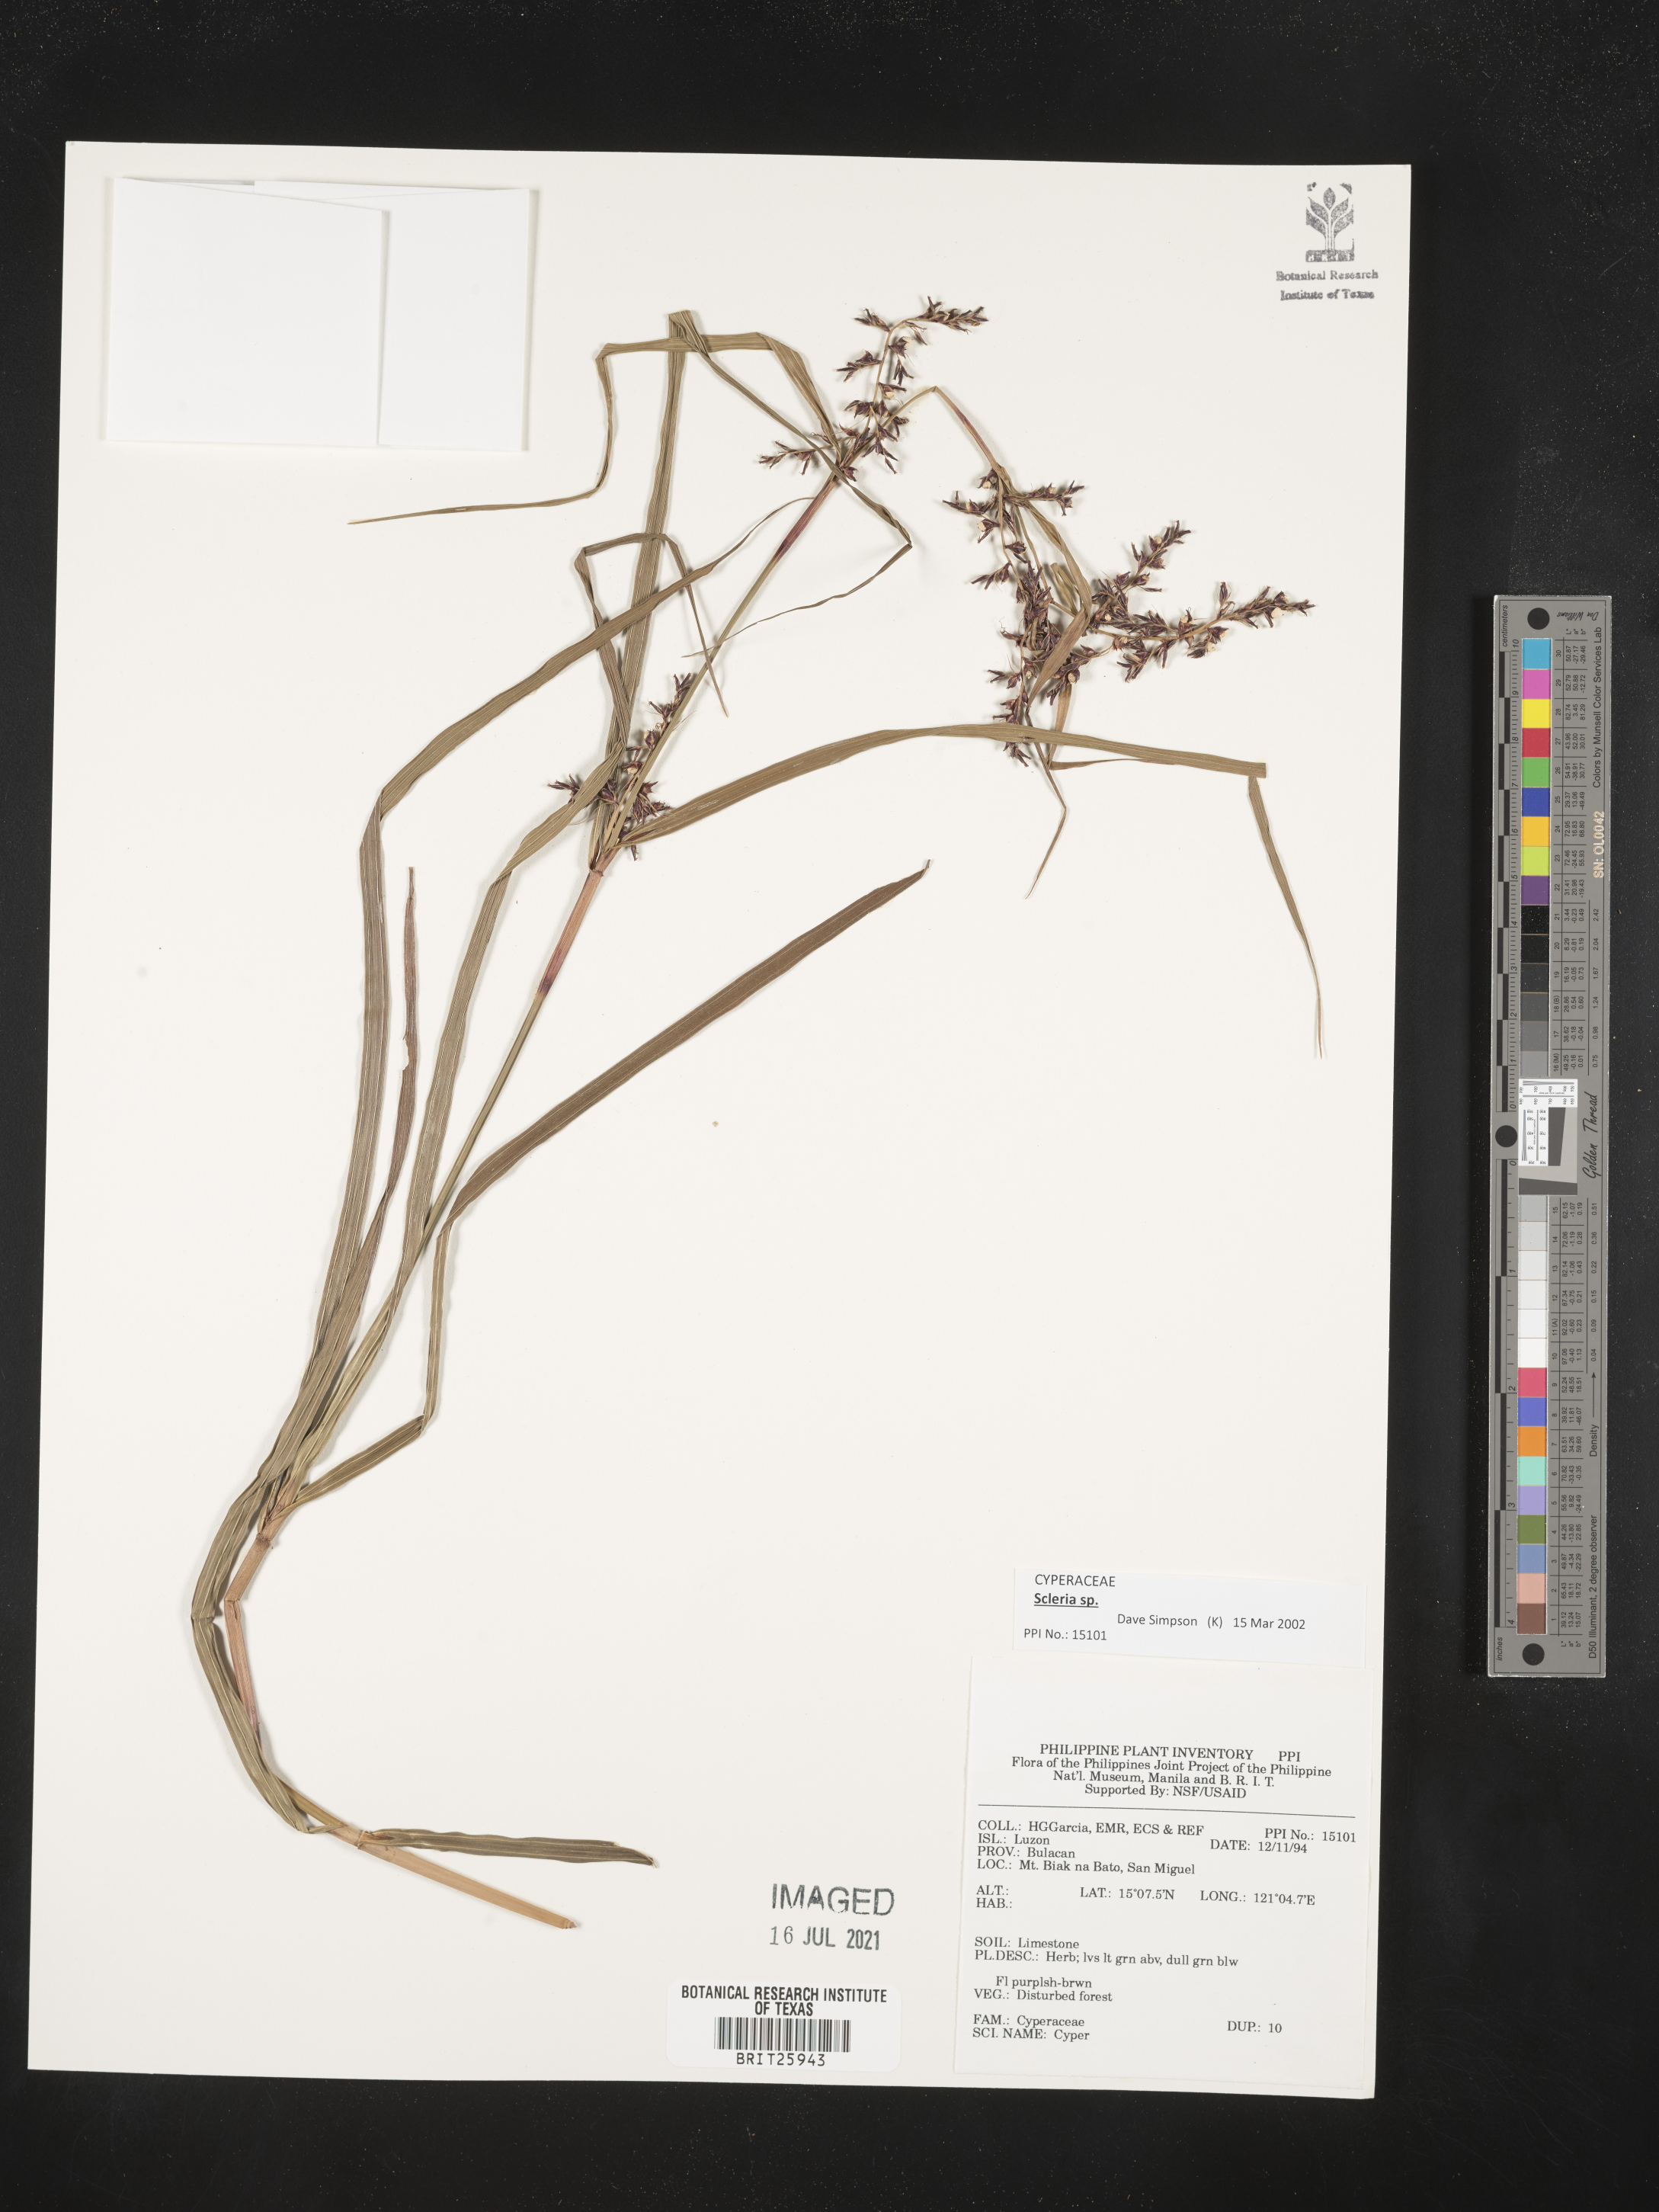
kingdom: Plantae
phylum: Tracheophyta
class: Liliopsida
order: Poales
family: Cyperaceae
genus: Scleria
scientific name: Scleria
